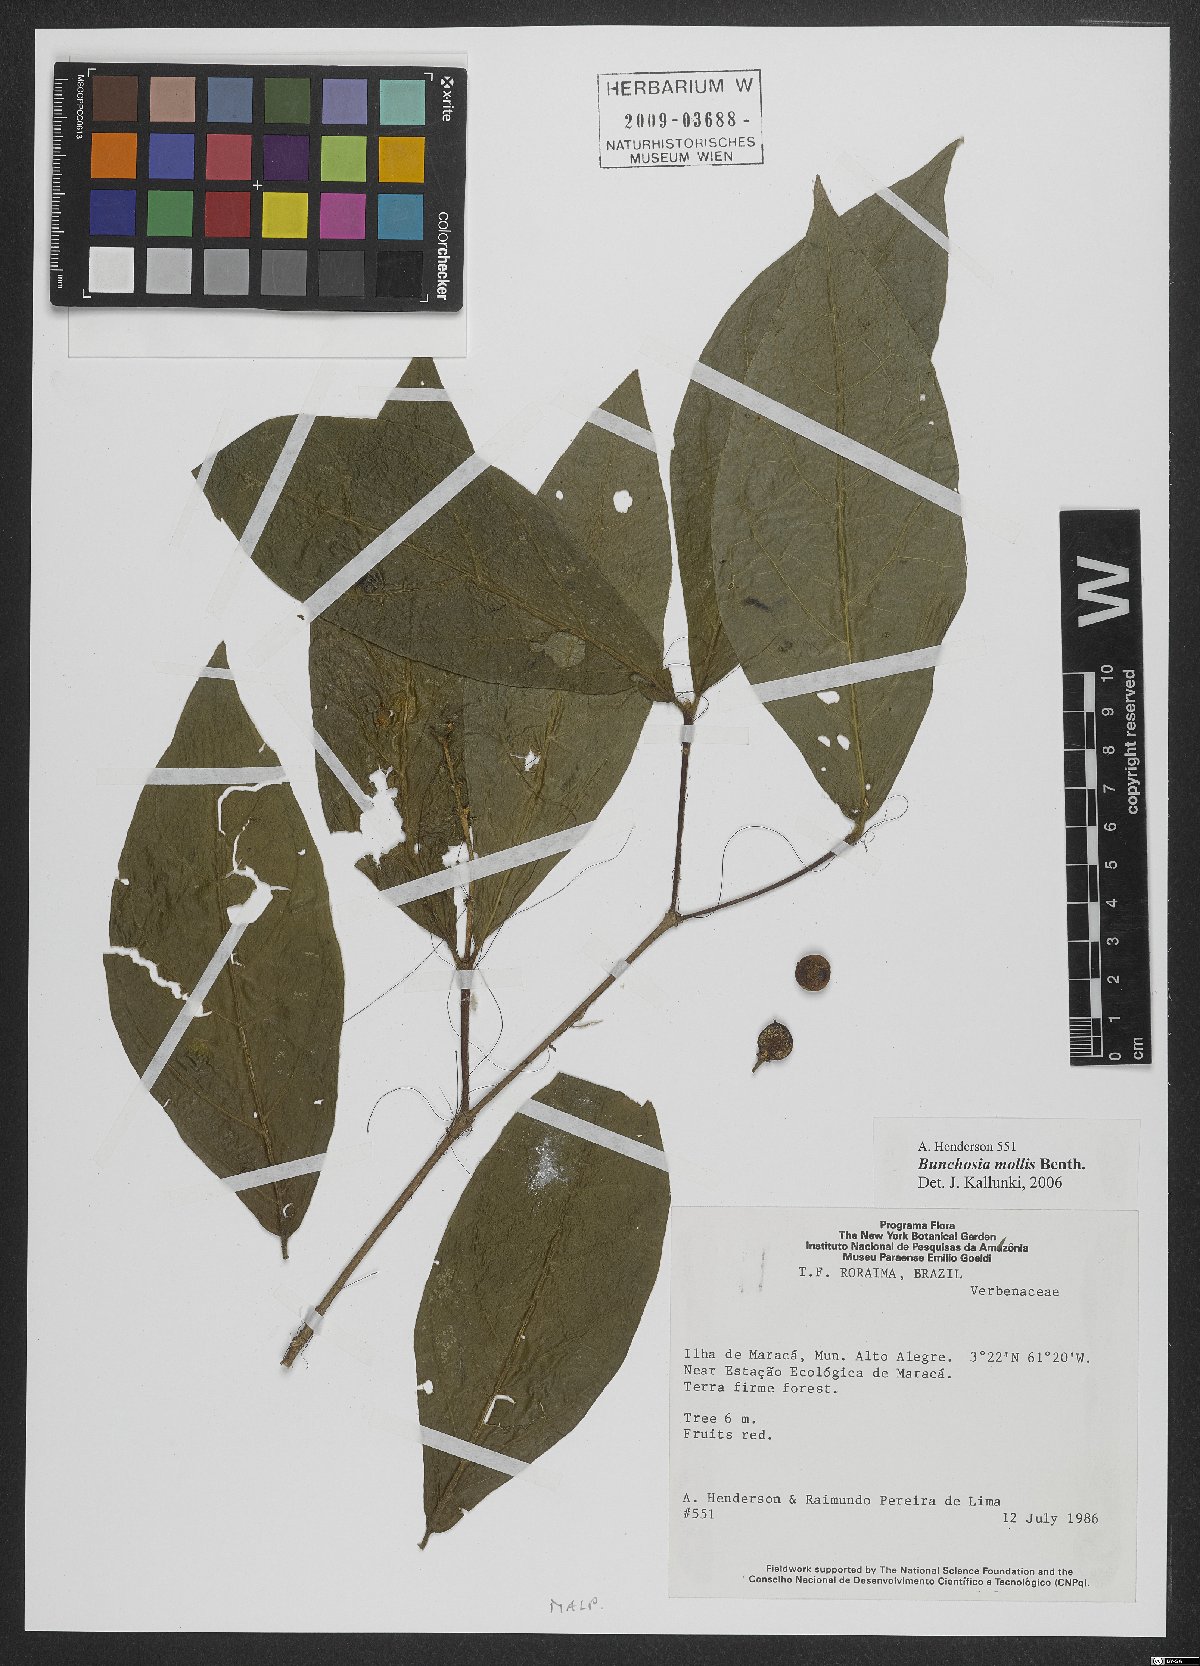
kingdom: Plantae
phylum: Tracheophyta
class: Magnoliopsida
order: Malpighiales
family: Malpighiaceae
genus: Bunchosia
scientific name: Bunchosia mollis
